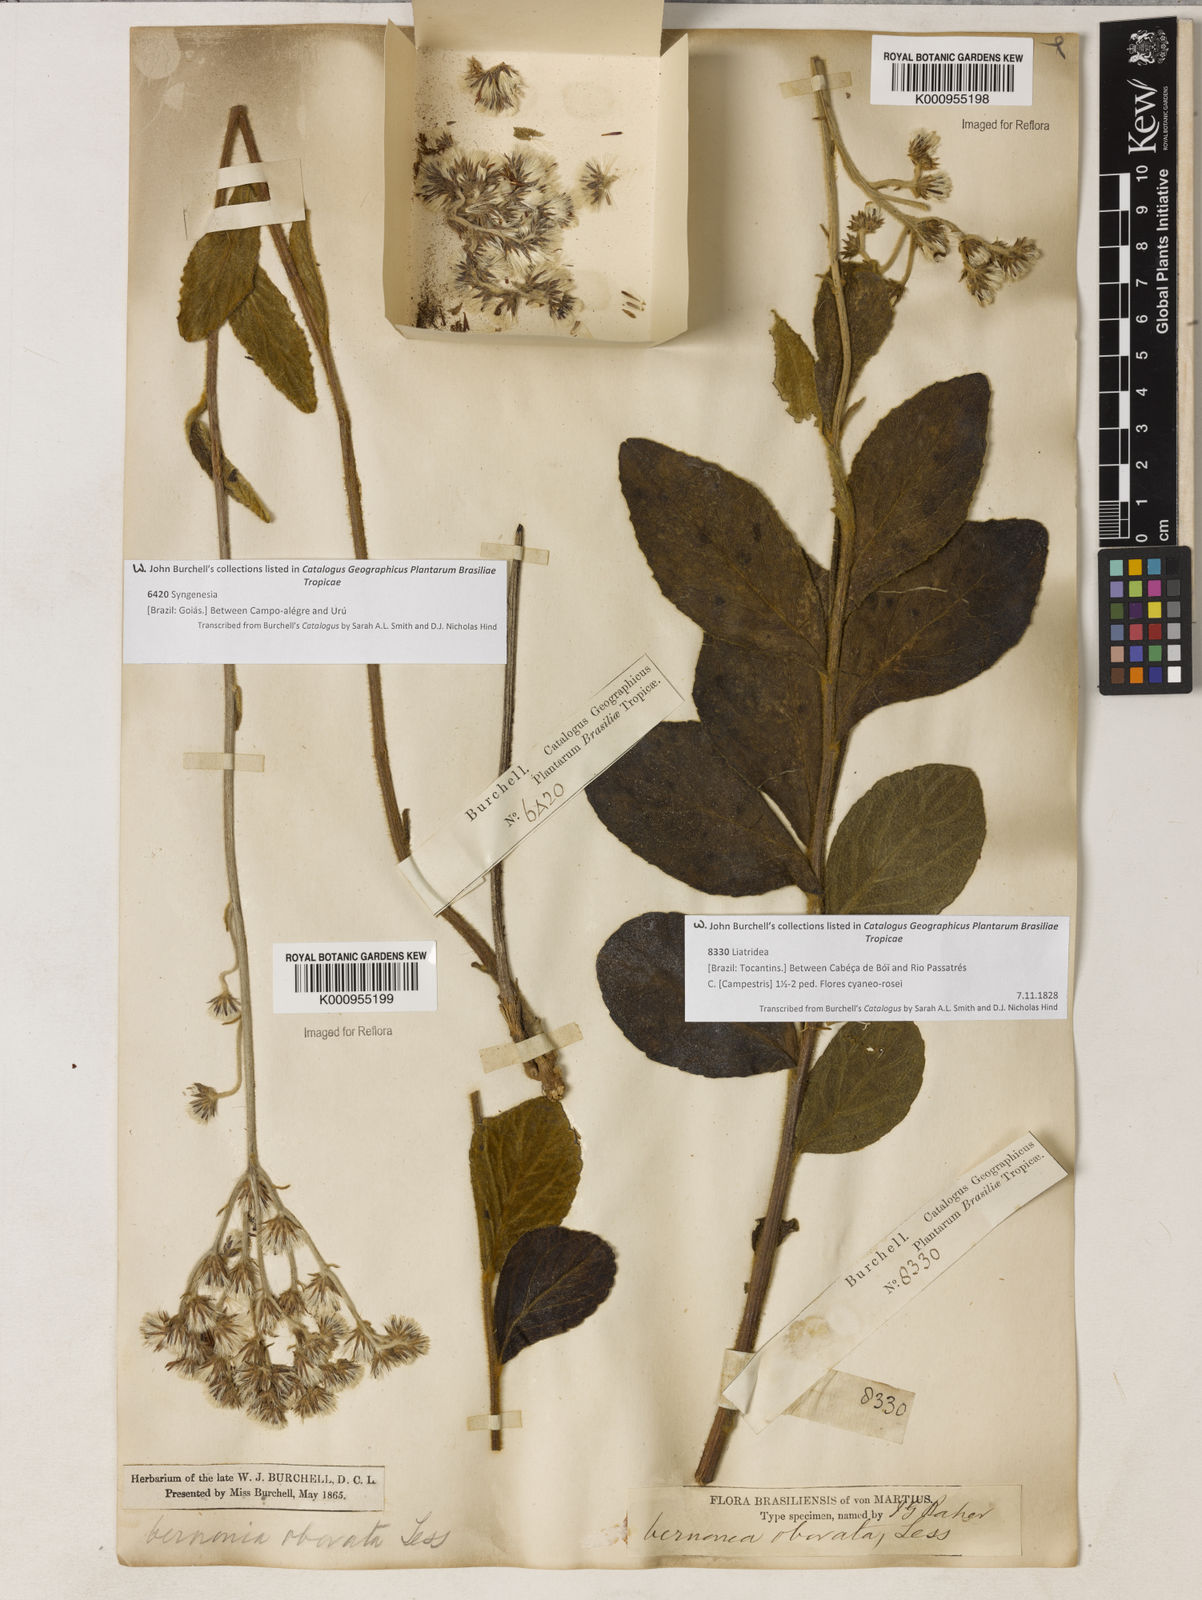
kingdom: Plantae
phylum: Tracheophyta
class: Magnoliopsida
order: Asterales
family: Asteraceae
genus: Chrysolaena
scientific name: Chrysolaena obovata
